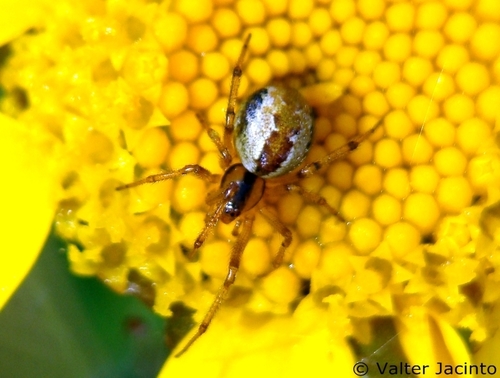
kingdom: Animalia
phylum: Arthropoda
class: Arachnida
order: Araneae
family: Theridiidae
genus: Kochiura
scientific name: Kochiura aulica
